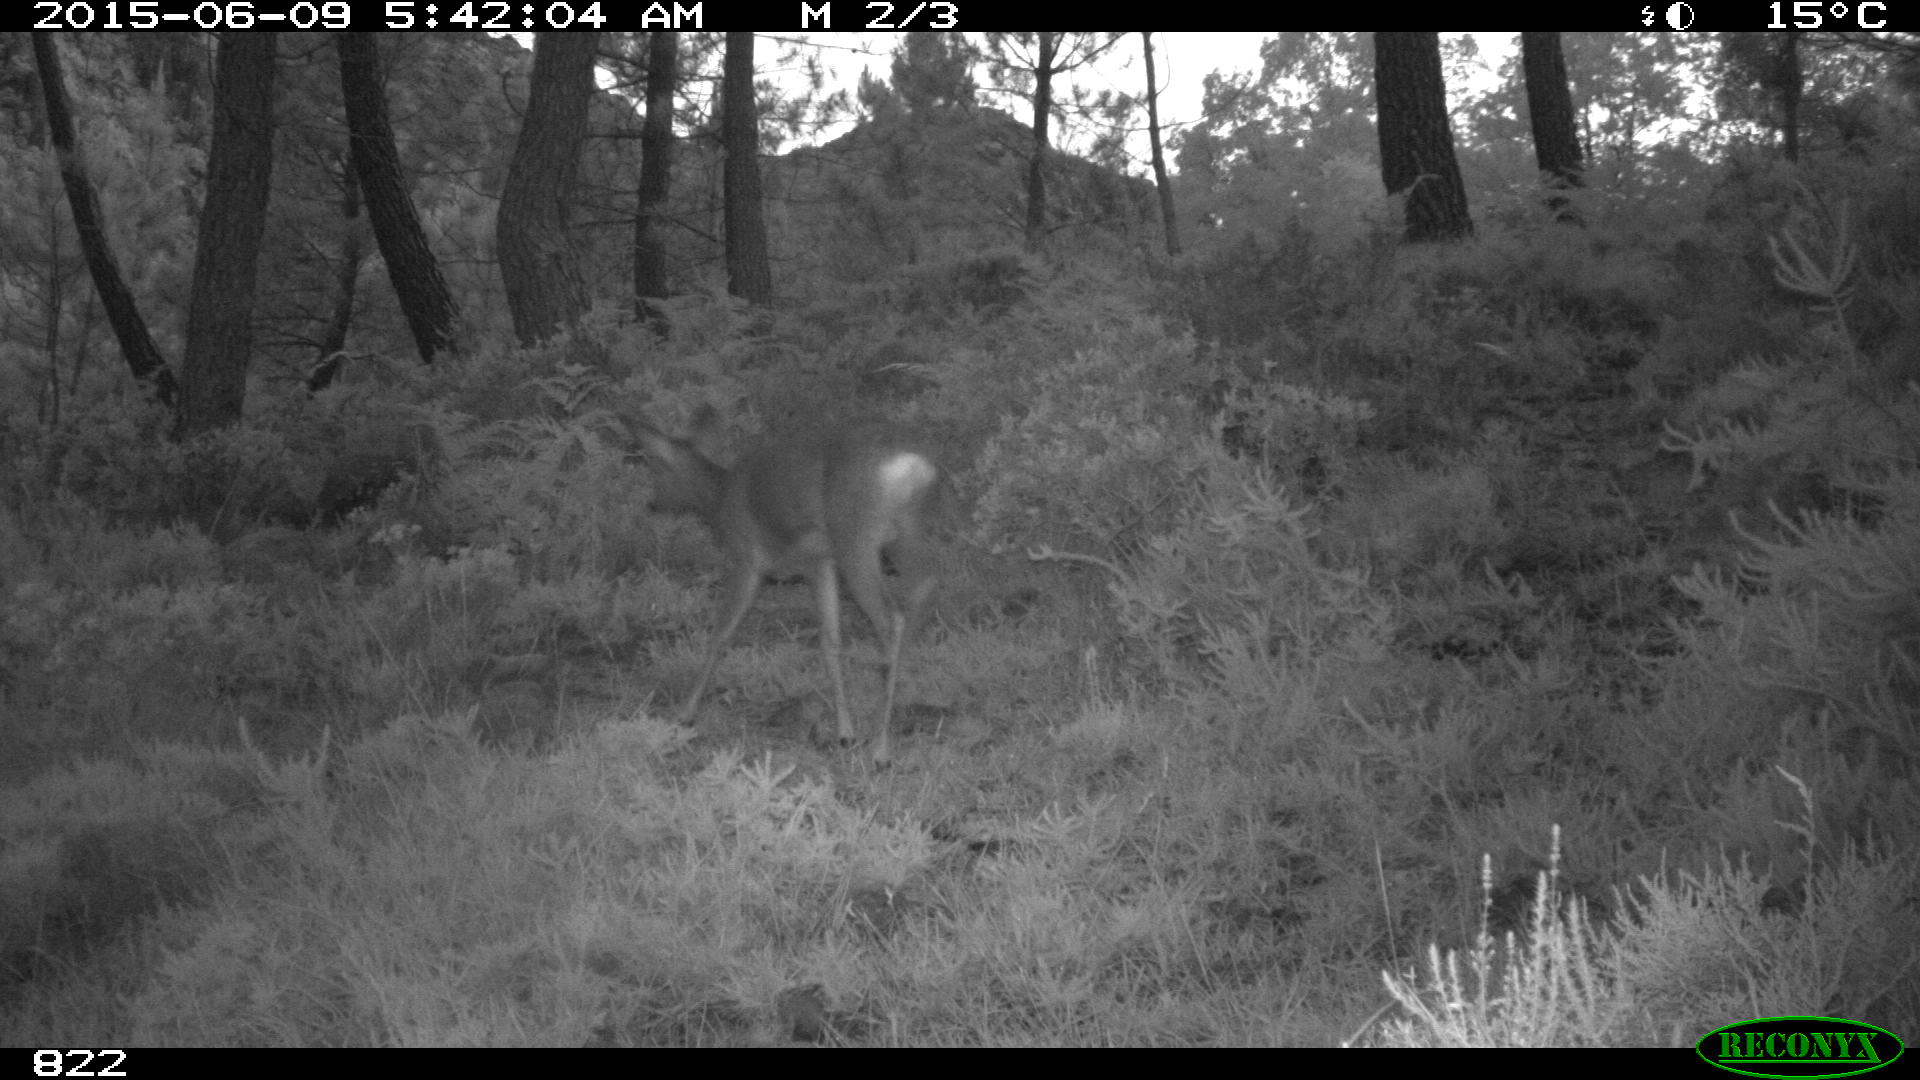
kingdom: Animalia
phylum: Chordata
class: Mammalia
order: Artiodactyla
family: Cervidae
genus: Capreolus
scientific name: Capreolus capreolus
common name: Western roe deer
